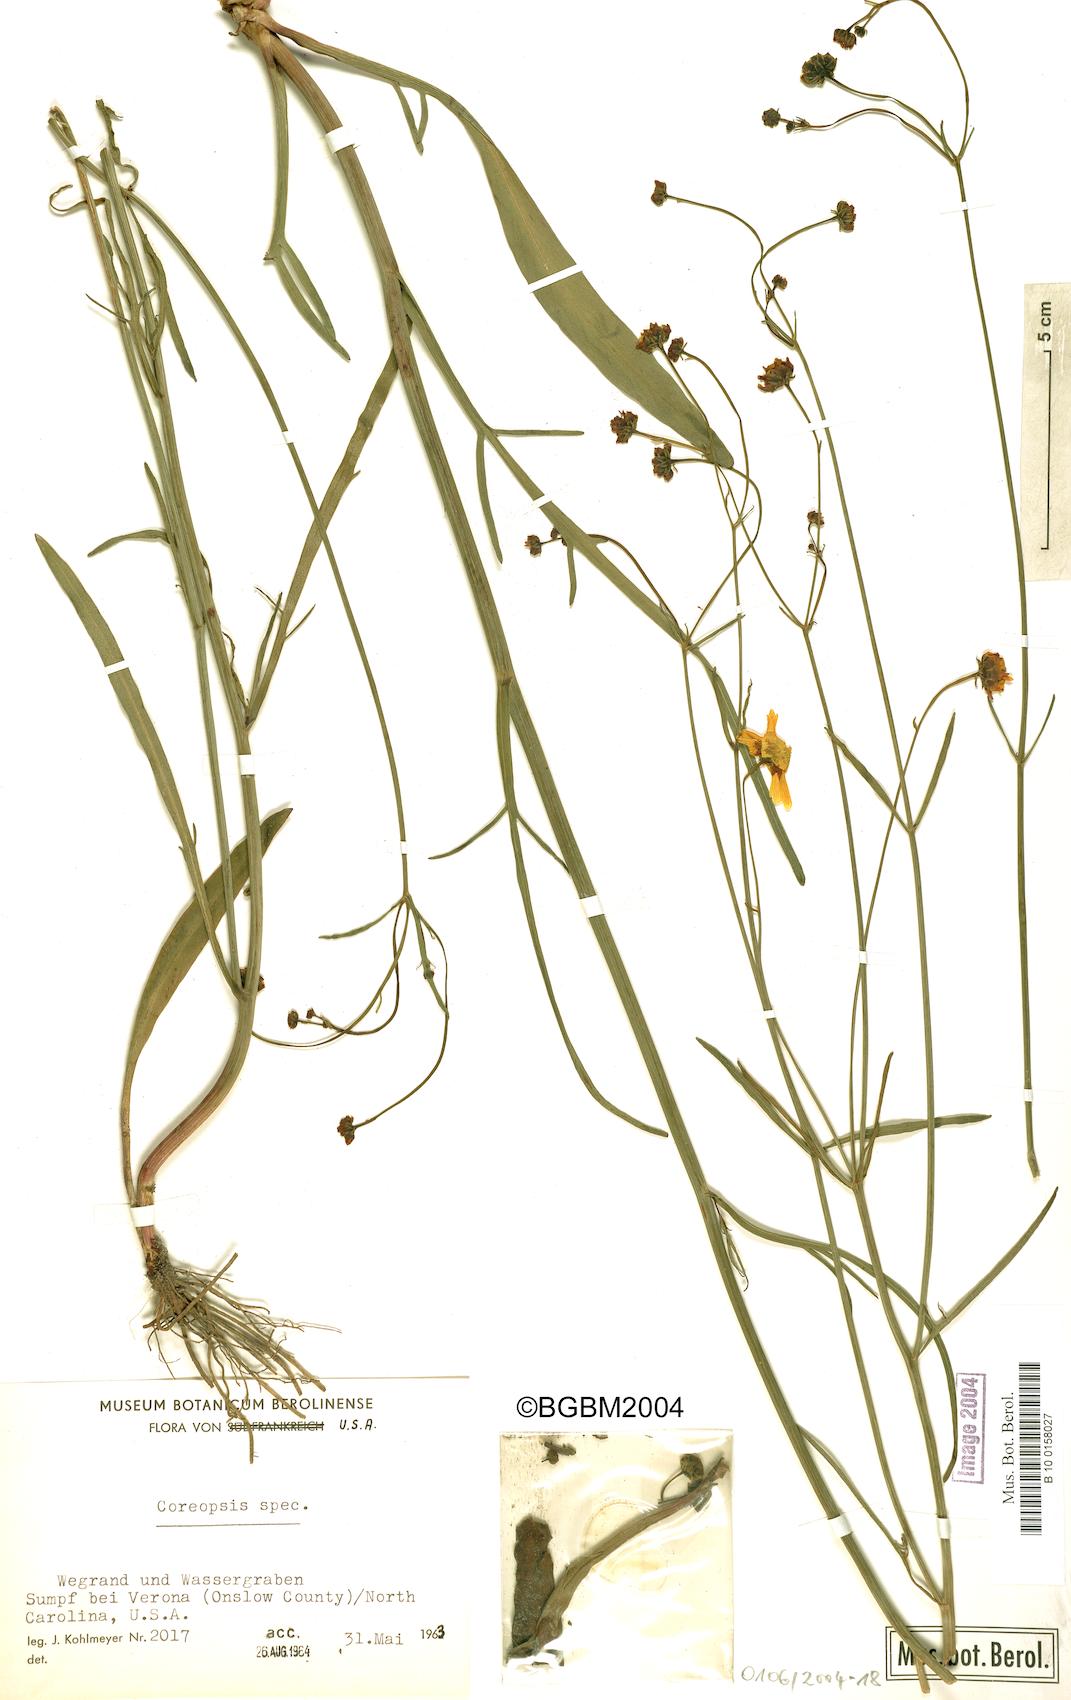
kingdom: Plantae
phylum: Tracheophyta
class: Magnoliopsida
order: Asterales
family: Asteraceae
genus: Coreopsis
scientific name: Coreopsis
